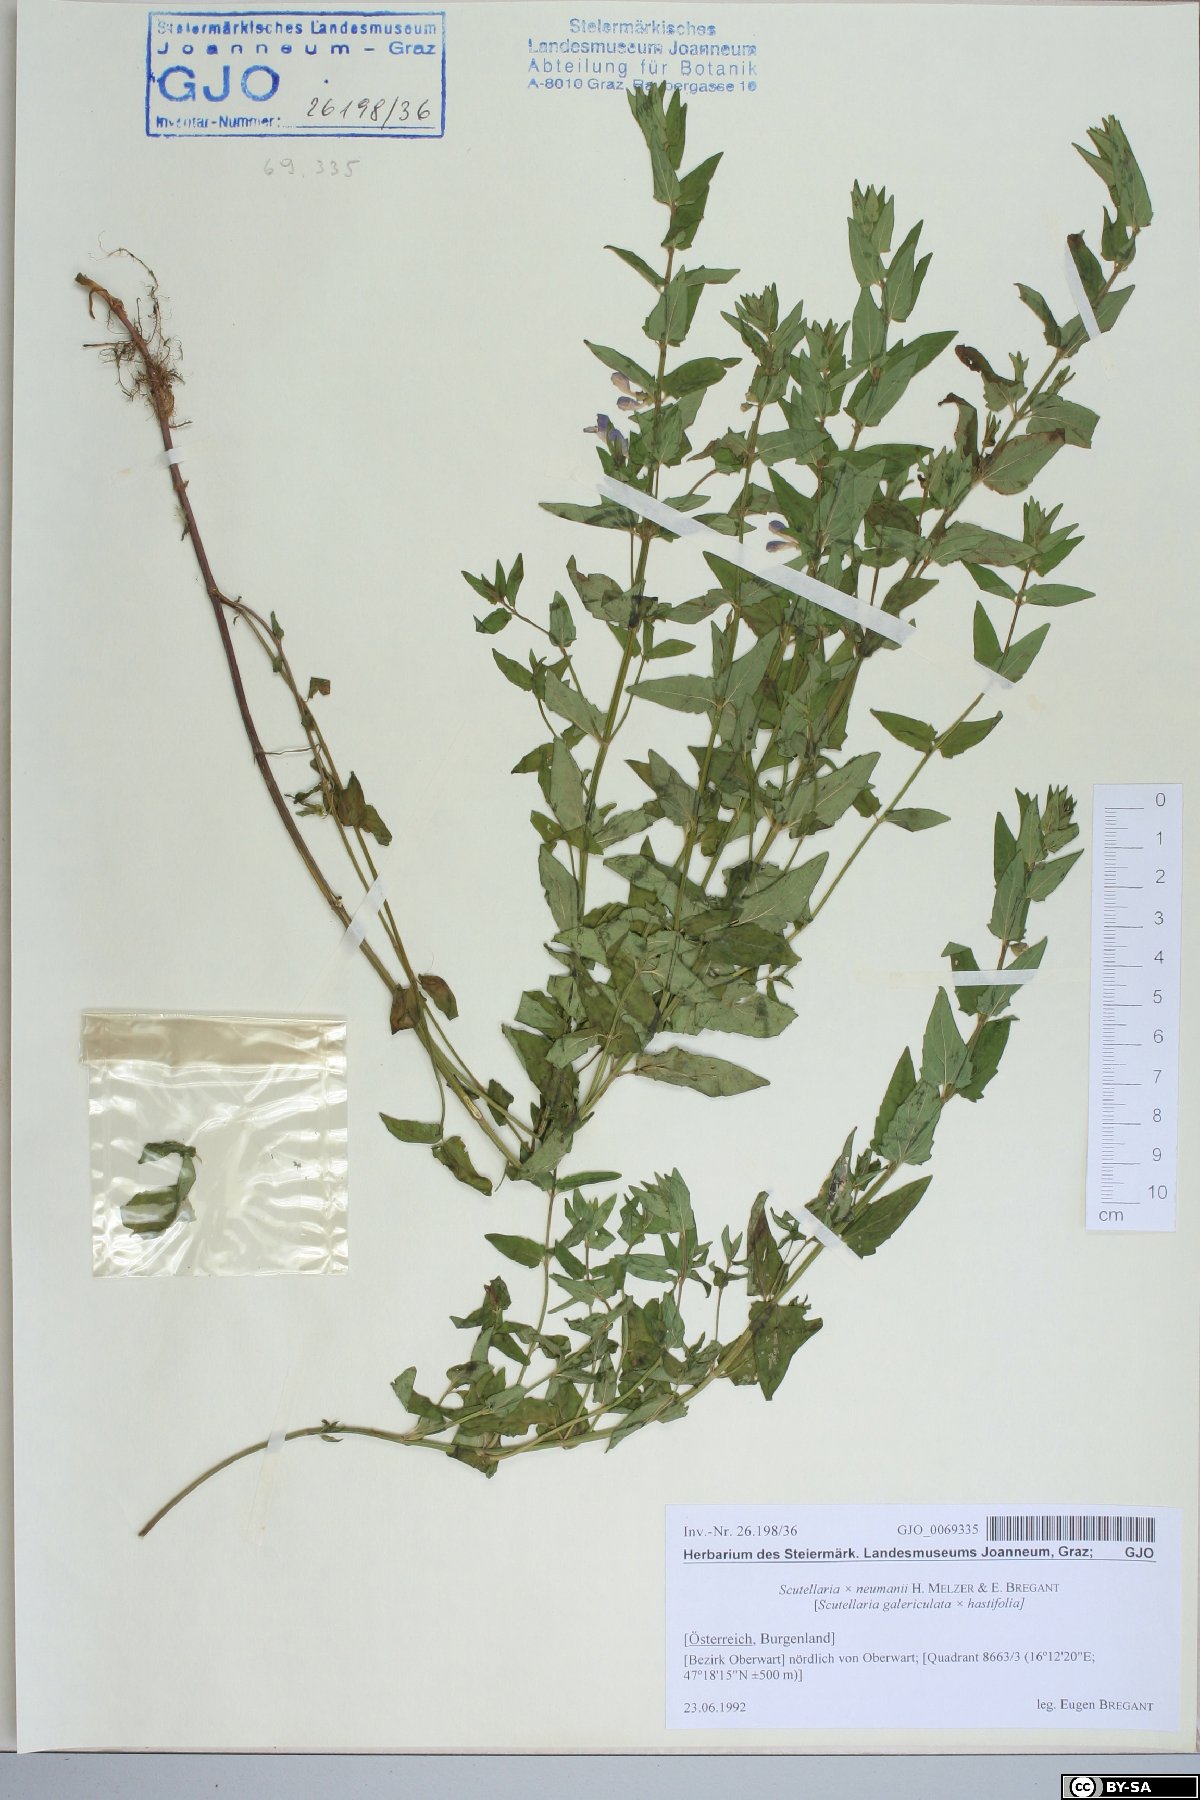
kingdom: Plantae
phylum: Tracheophyta
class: Magnoliopsida
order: Lamiales
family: Lamiaceae
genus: Scutellaria
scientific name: Scutellaria neumannii
